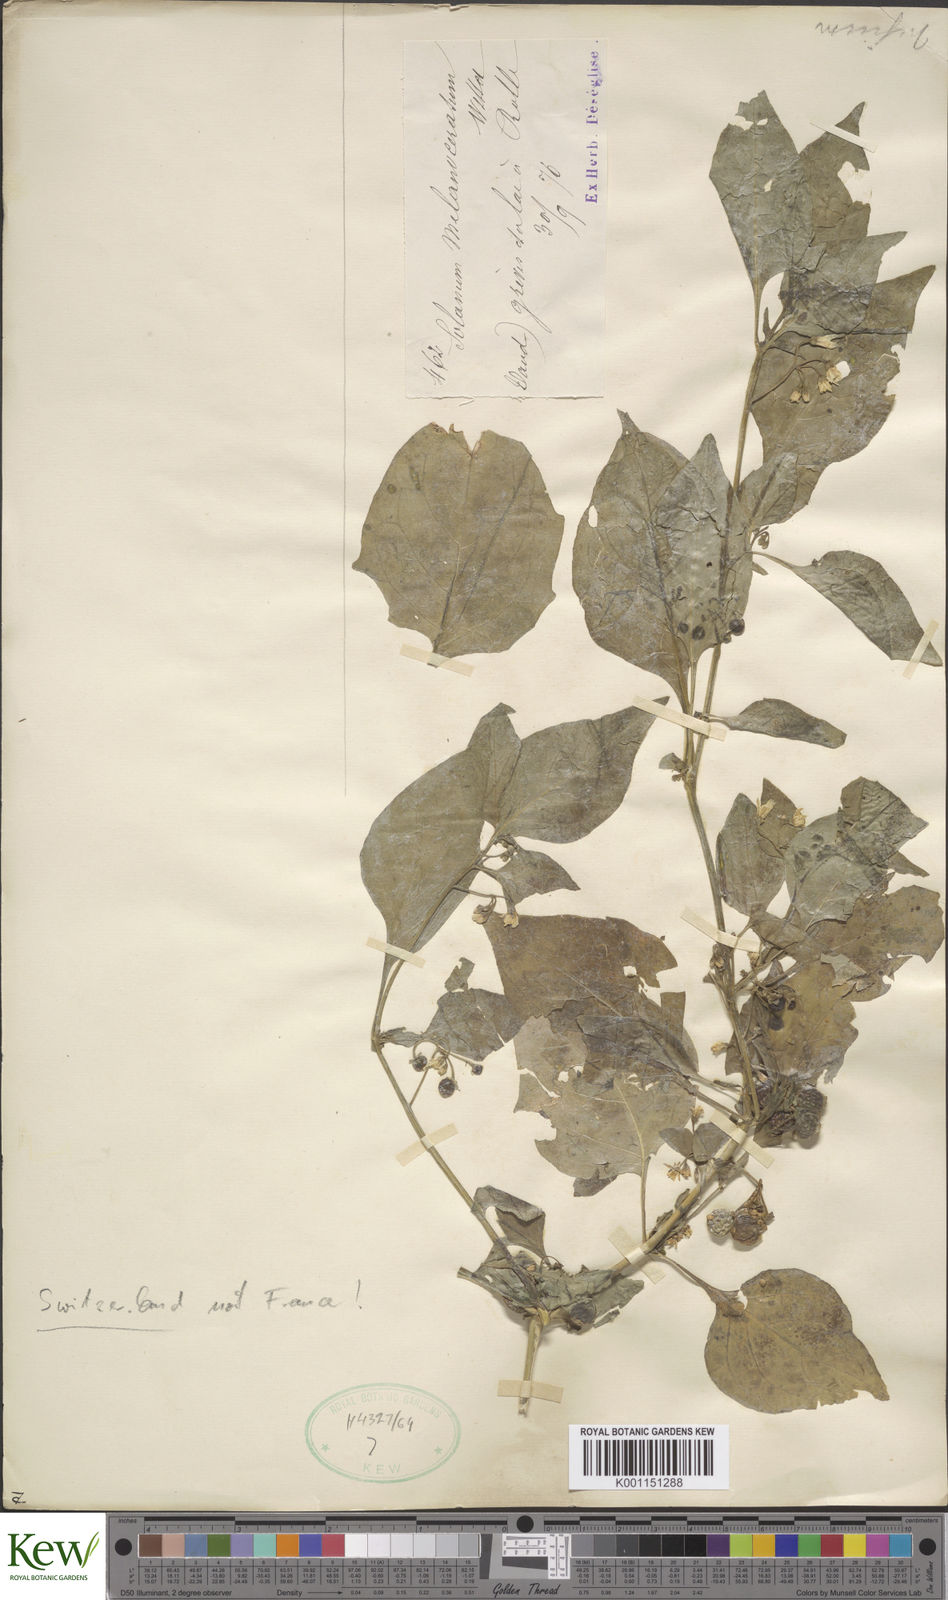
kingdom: Plantae
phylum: Tracheophyta
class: Magnoliopsida
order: Solanales
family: Solanaceae
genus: Solanum
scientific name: Solanum nigrum
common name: Black nightshade
